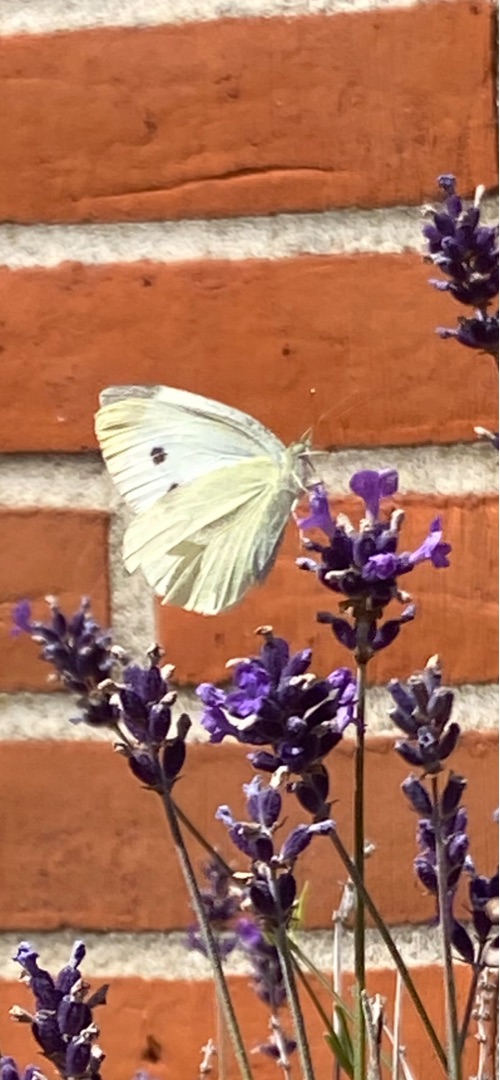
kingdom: Animalia
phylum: Arthropoda
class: Insecta
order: Lepidoptera
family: Pieridae
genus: Pieris
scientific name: Pieris rapae
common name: Lille kålsommerfugl
